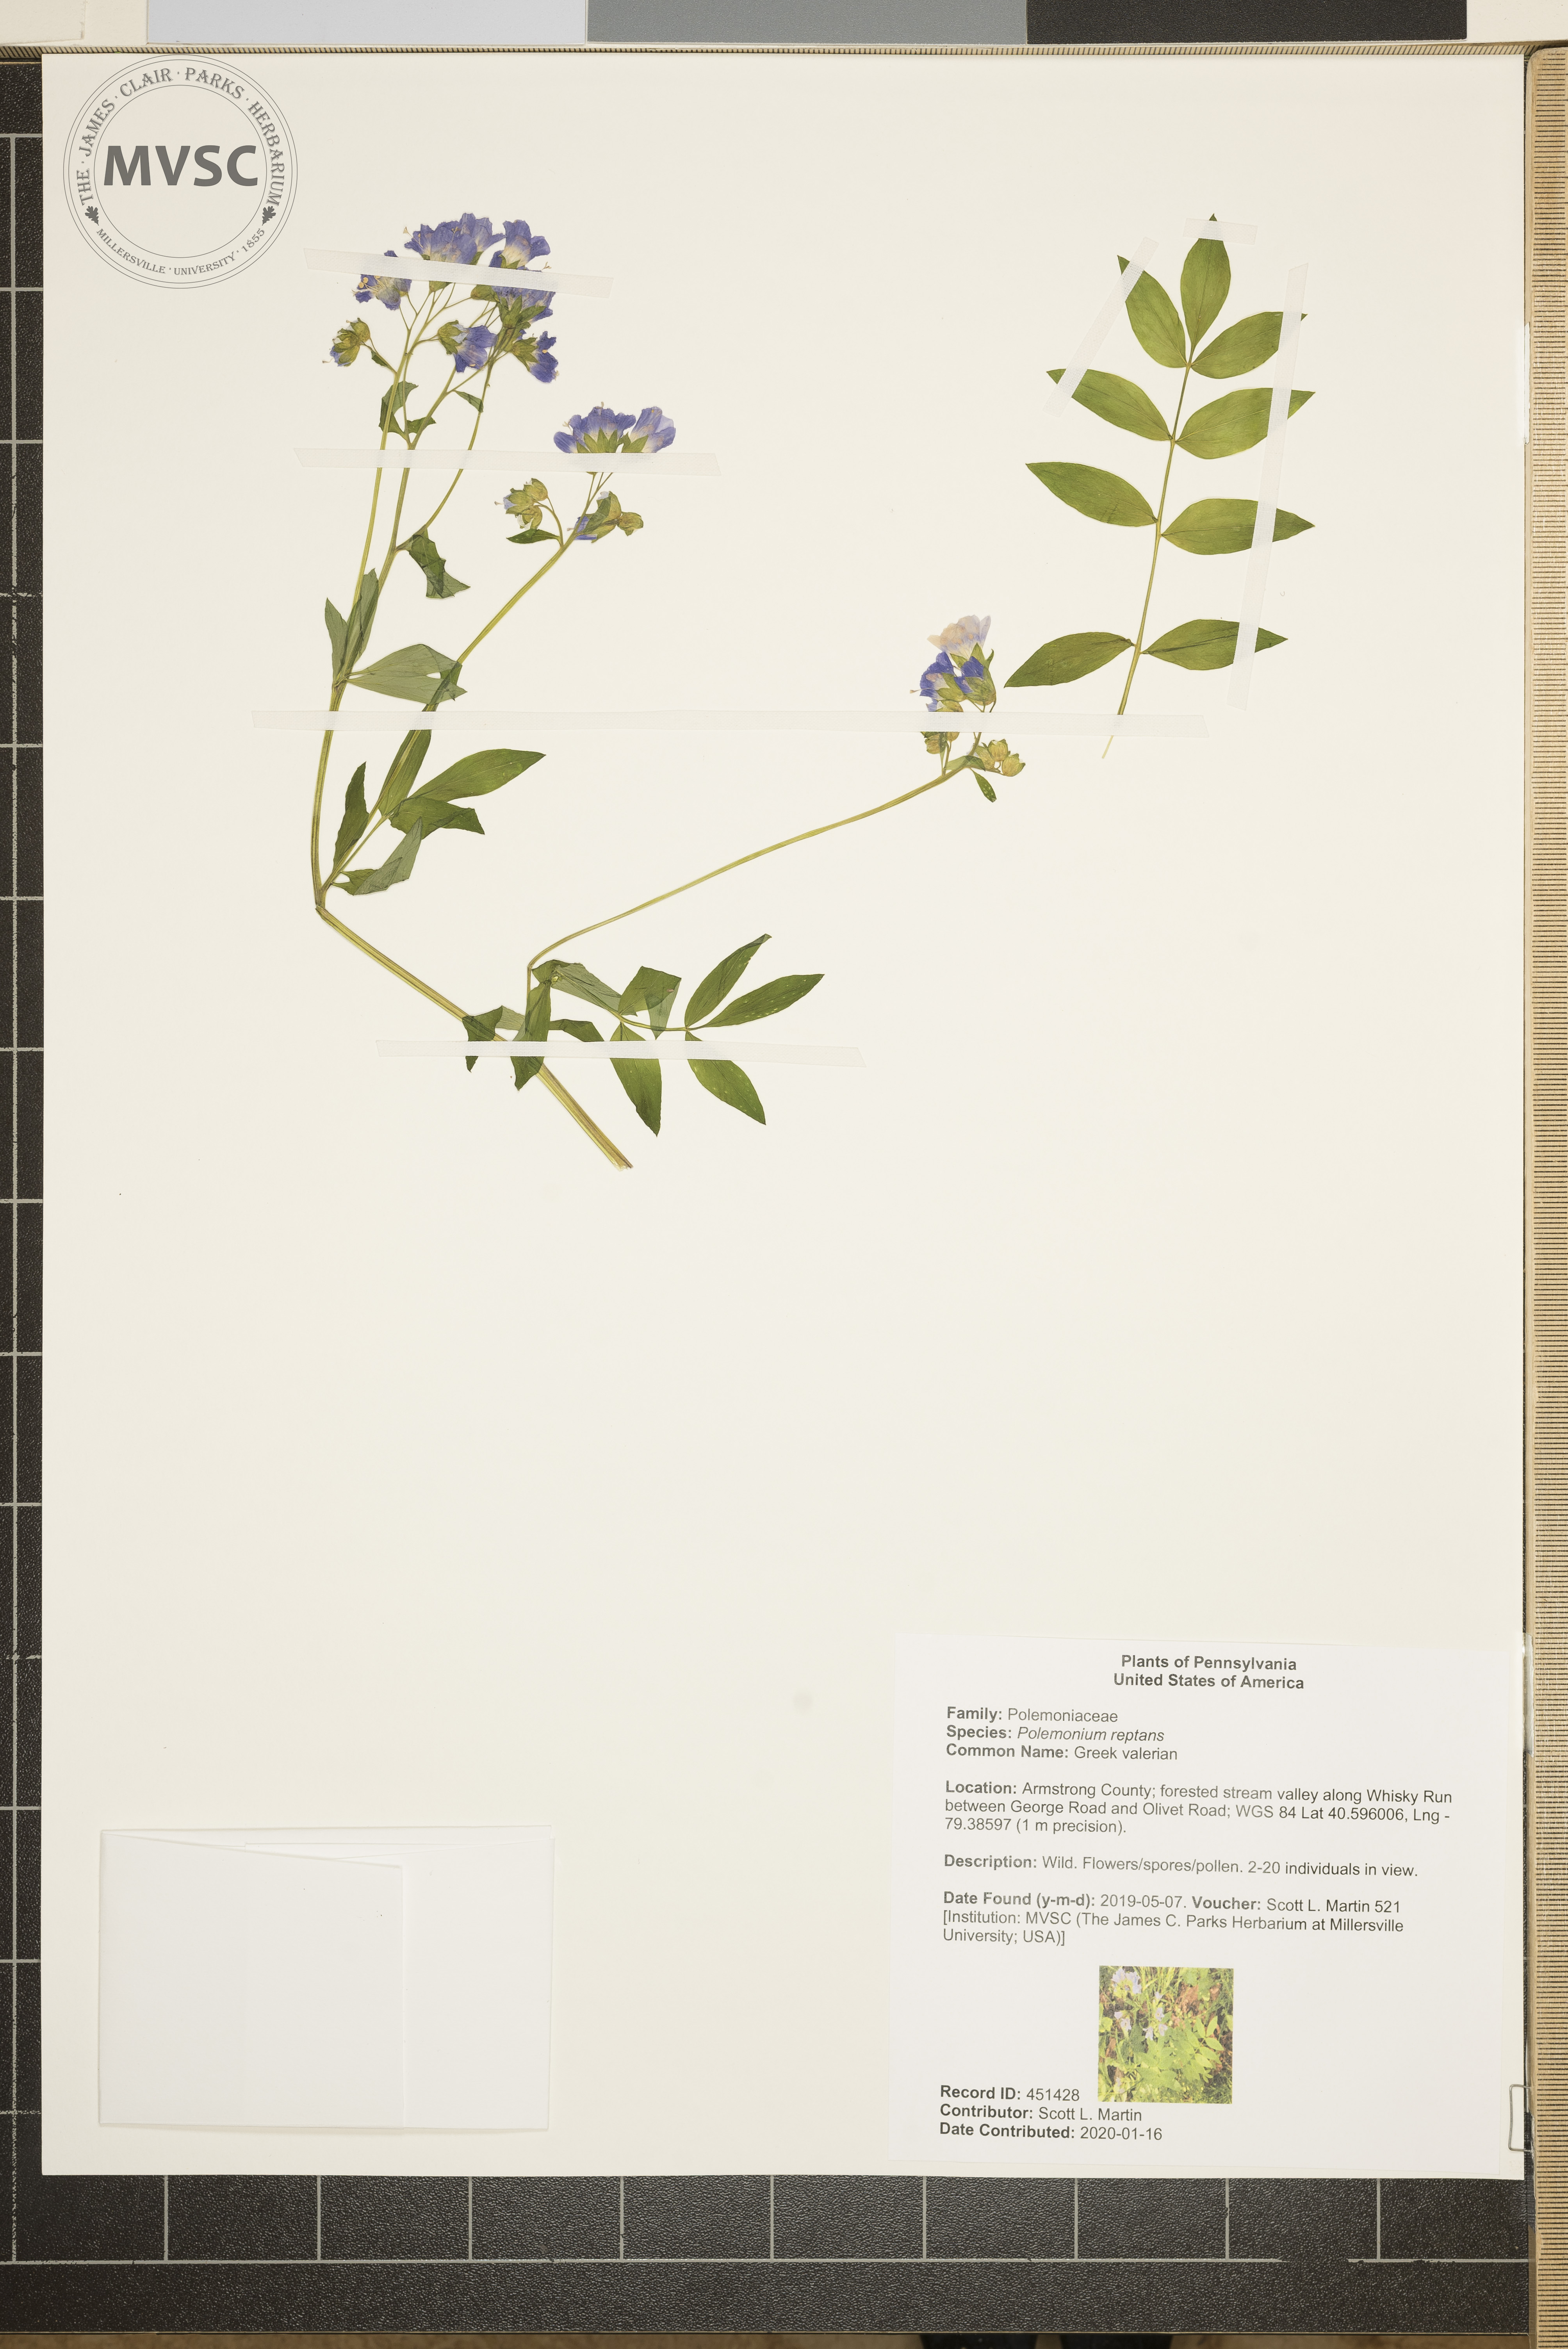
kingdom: Plantae
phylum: Tracheophyta
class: Magnoliopsida
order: Ericales
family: Polemoniaceae
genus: Polemonium
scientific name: Polemonium reptans
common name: Greek valerian
